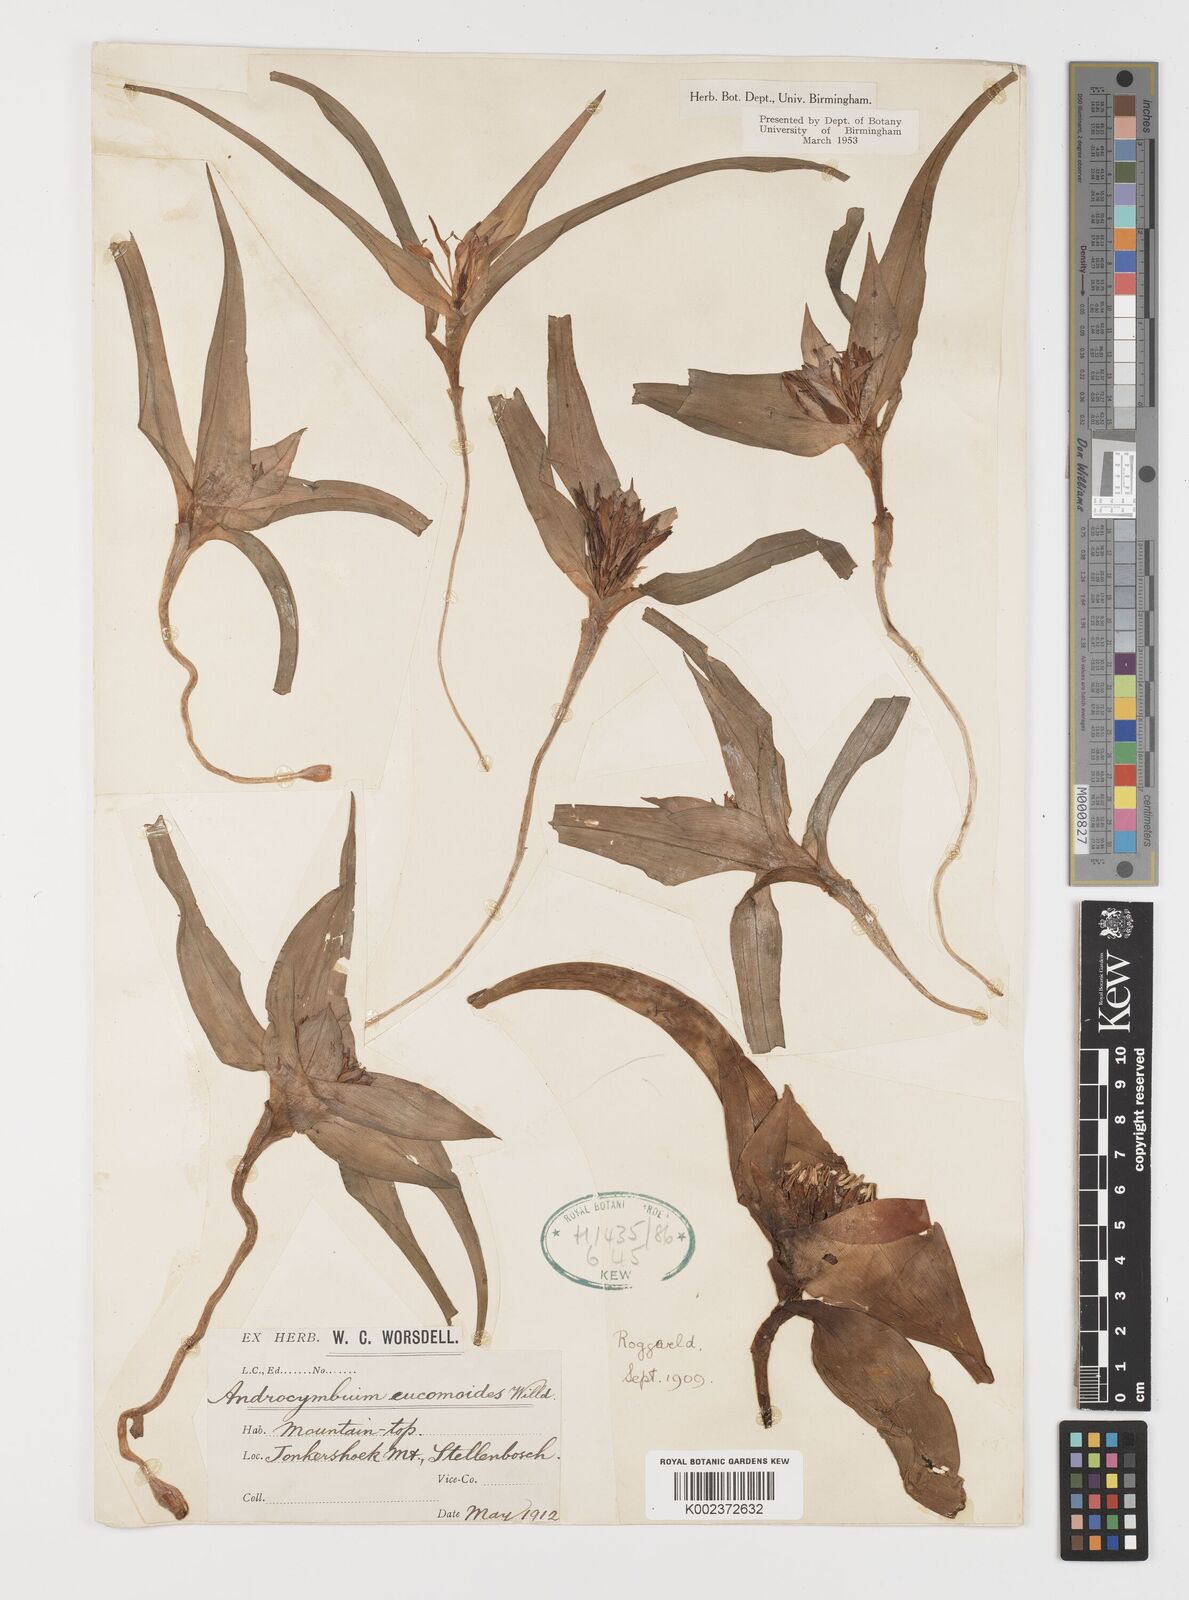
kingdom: Plantae
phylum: Tracheophyta
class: Liliopsida
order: Liliales
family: Colchicaceae
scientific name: Colchicaceae
